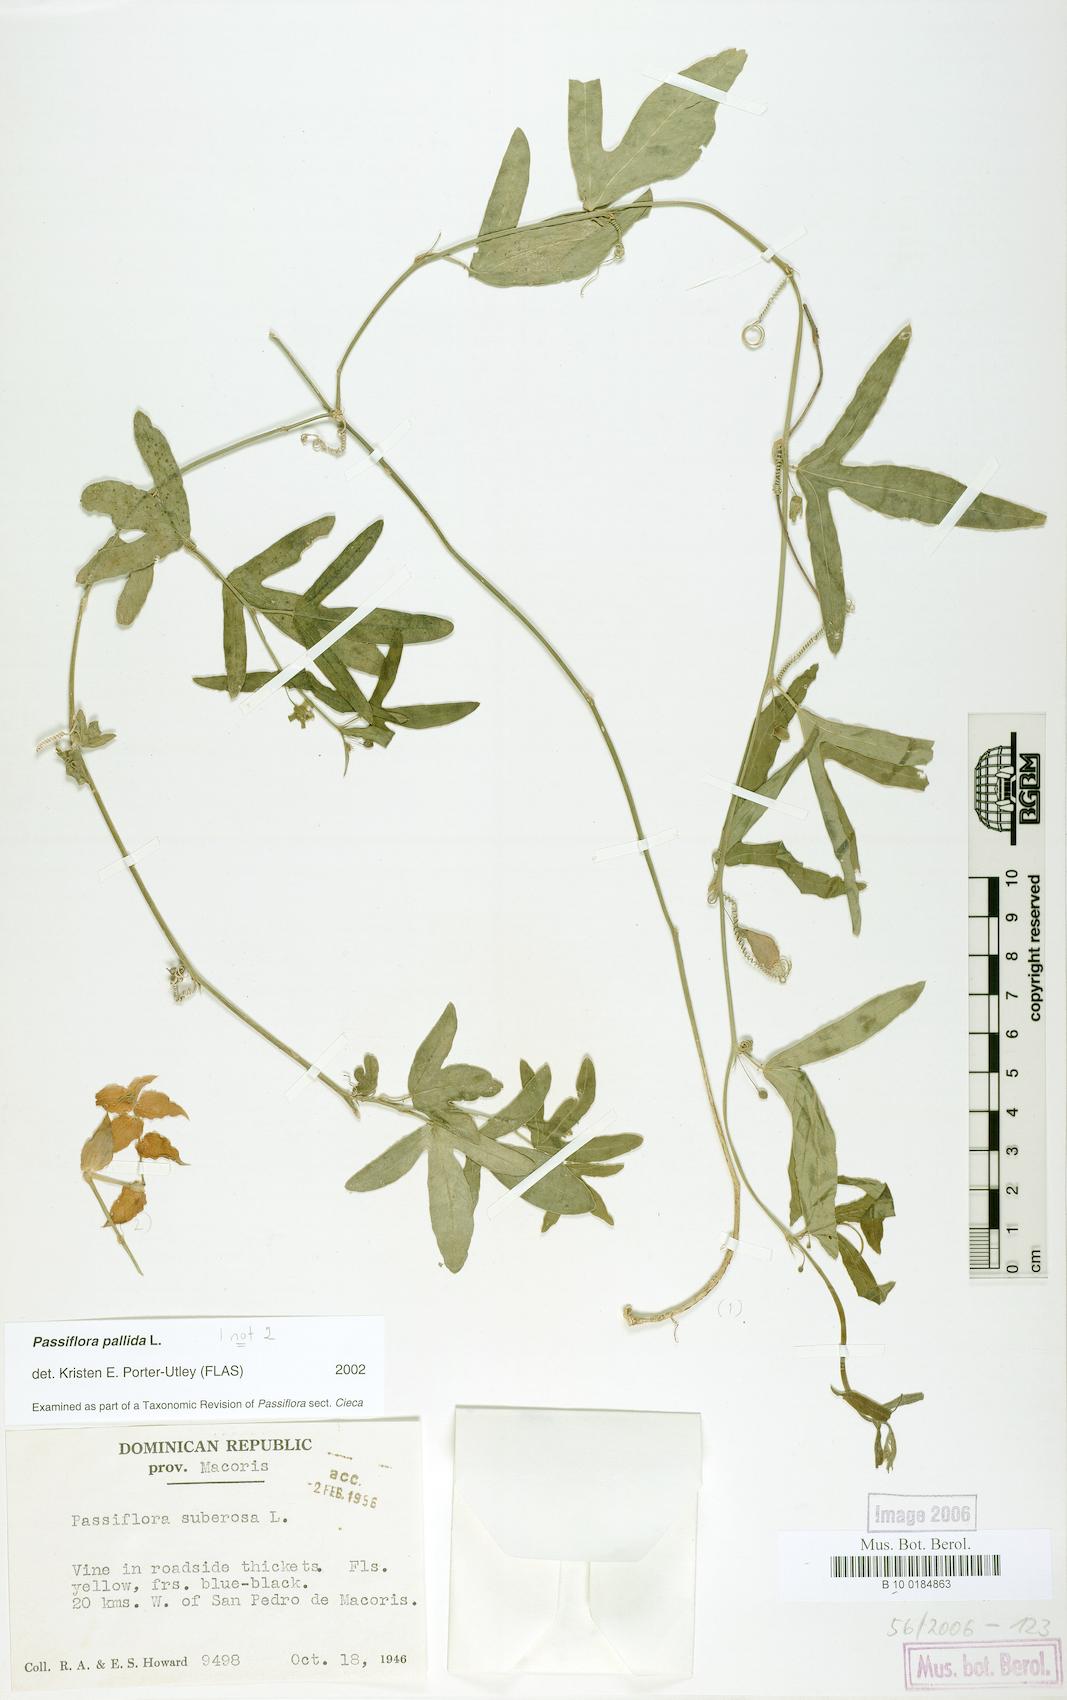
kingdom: Plantae
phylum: Tracheophyta
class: Magnoliopsida
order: Malpighiales
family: Passifloraceae
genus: Passiflora
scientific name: Passiflora pallida
